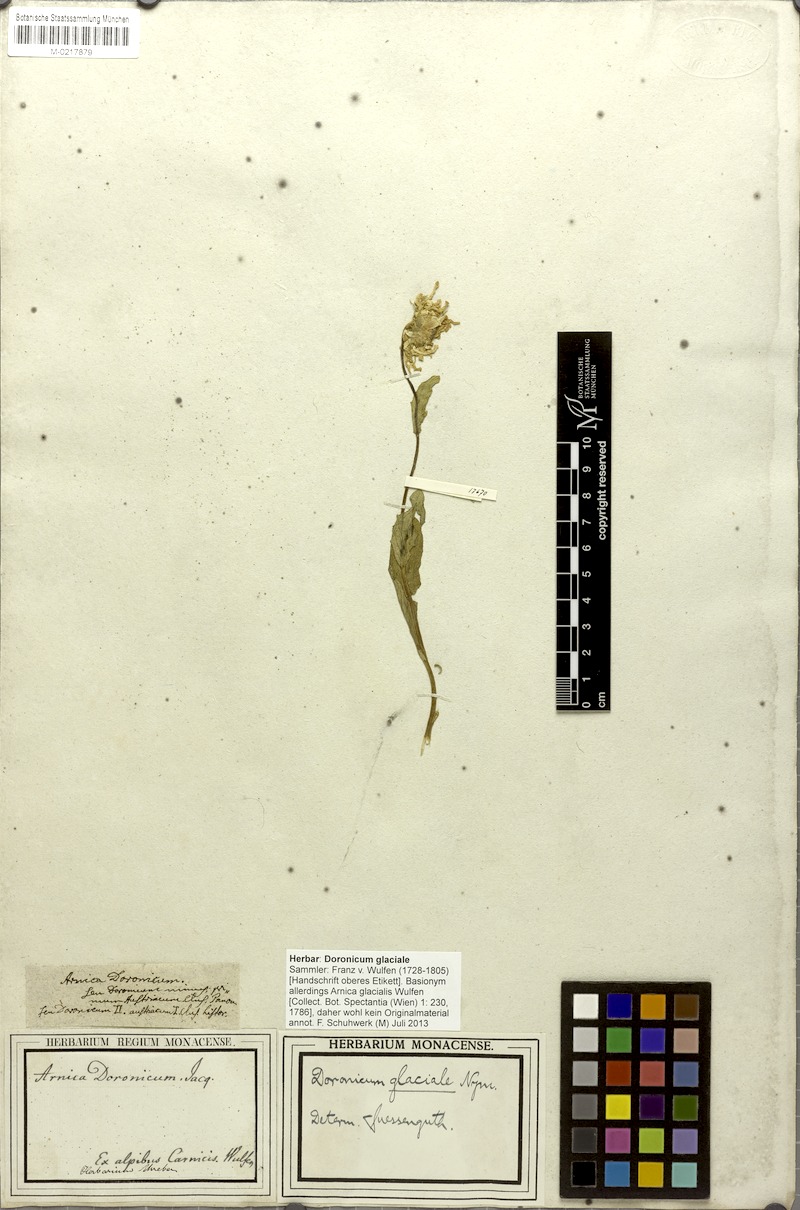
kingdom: Plantae
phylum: Tracheophyta
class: Magnoliopsida
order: Asterales
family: Asteraceae
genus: Doronicum
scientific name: Doronicum glaciale
